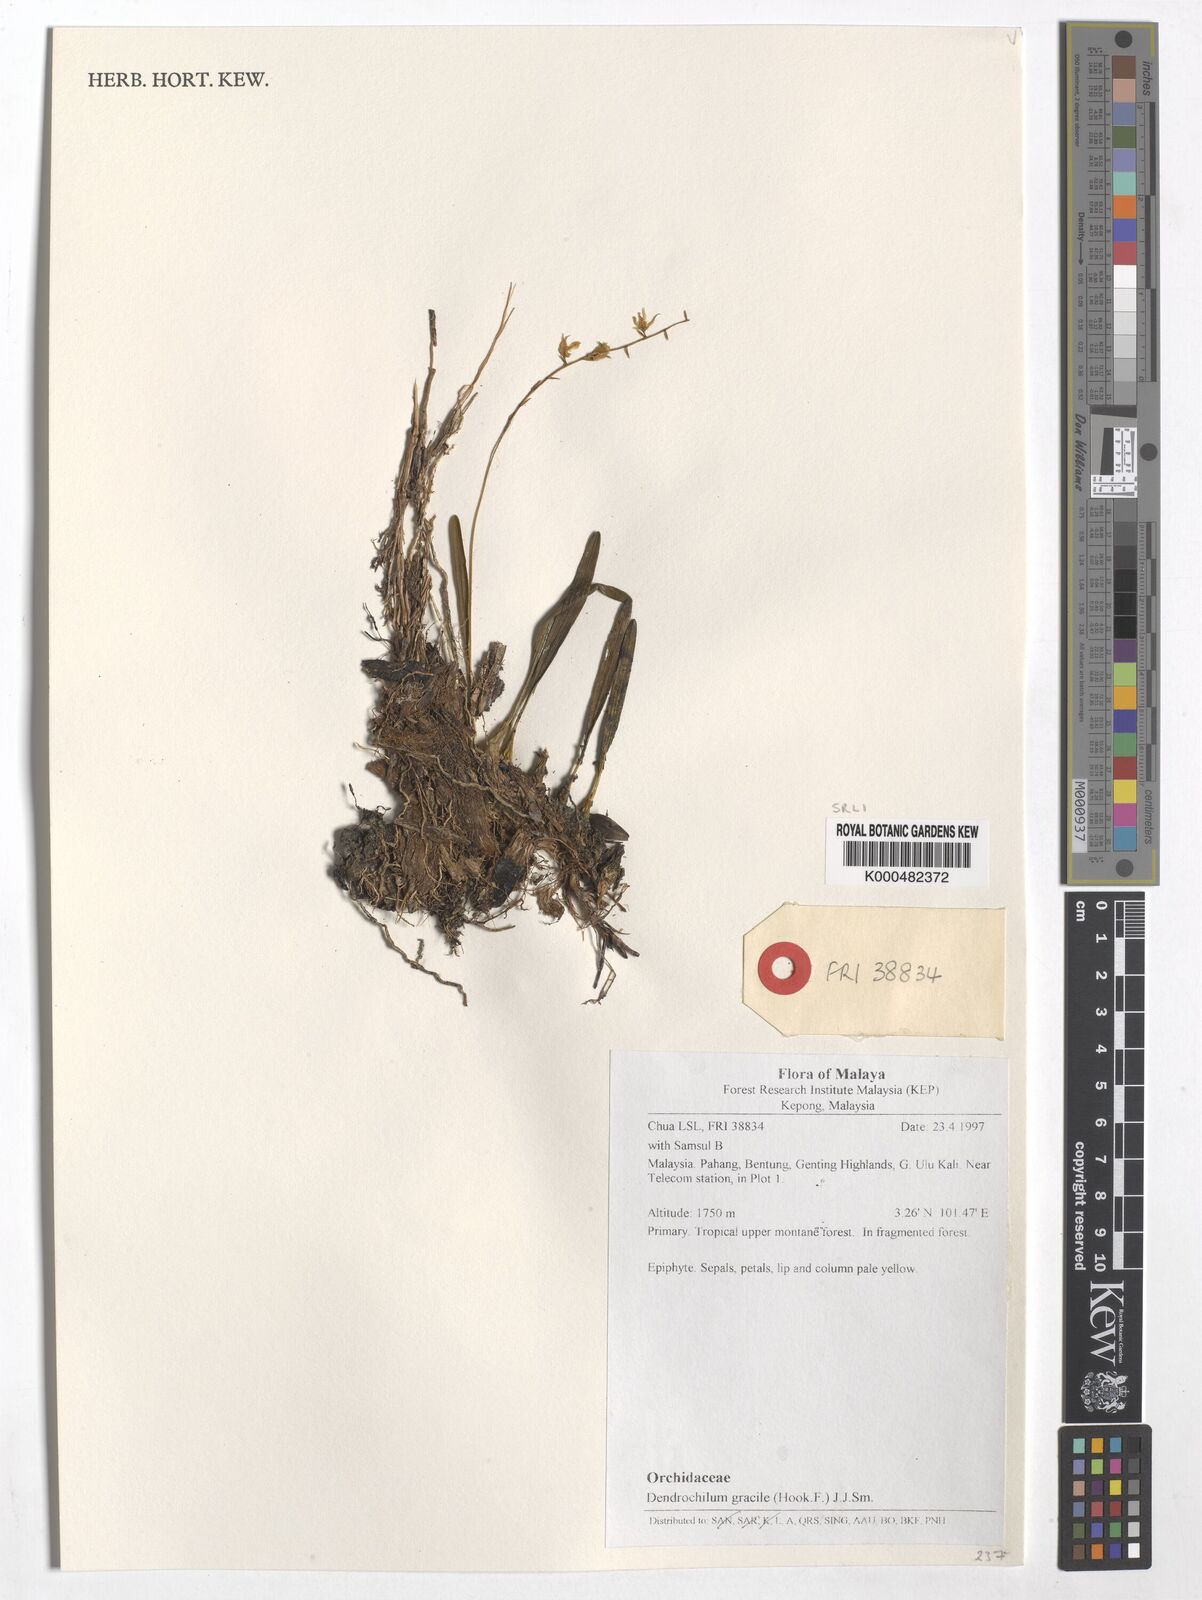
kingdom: Plantae
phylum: Tracheophyta
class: Liliopsida
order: Asparagales
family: Orchidaceae
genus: Coelogyne
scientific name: Coelogyne gracilis
